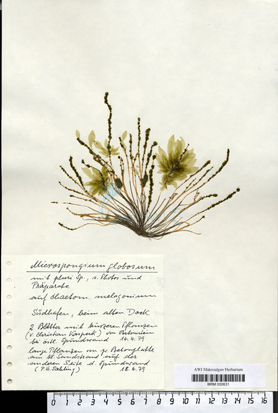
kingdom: Chromista
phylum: Ochrophyta
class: Phaeophyceae
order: Ectocarpales
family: Chordariaceae
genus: Microspongium
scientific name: Microspongium globosum
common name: Brown algae
